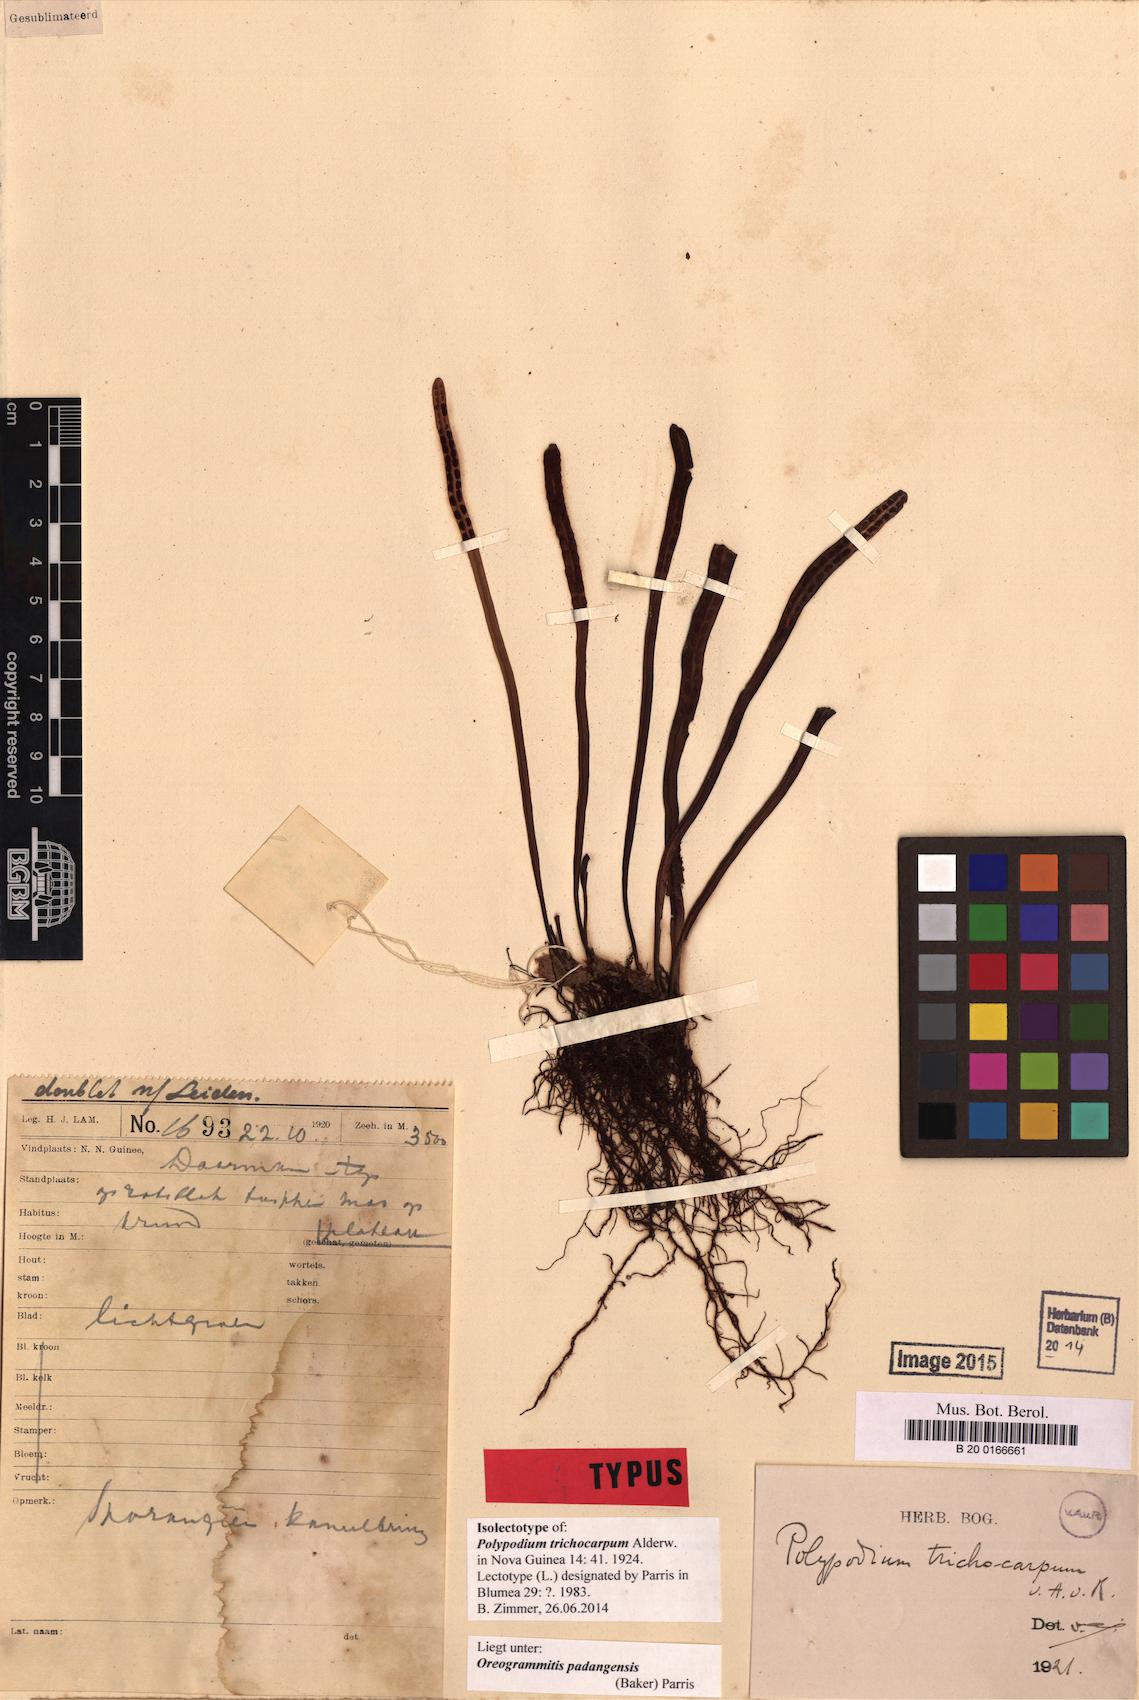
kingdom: Plantae
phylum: Tracheophyta
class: Polypodiopsida
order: Polypodiales
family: Polypodiaceae
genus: Oreogrammitis
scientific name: Oreogrammitis padangensis
